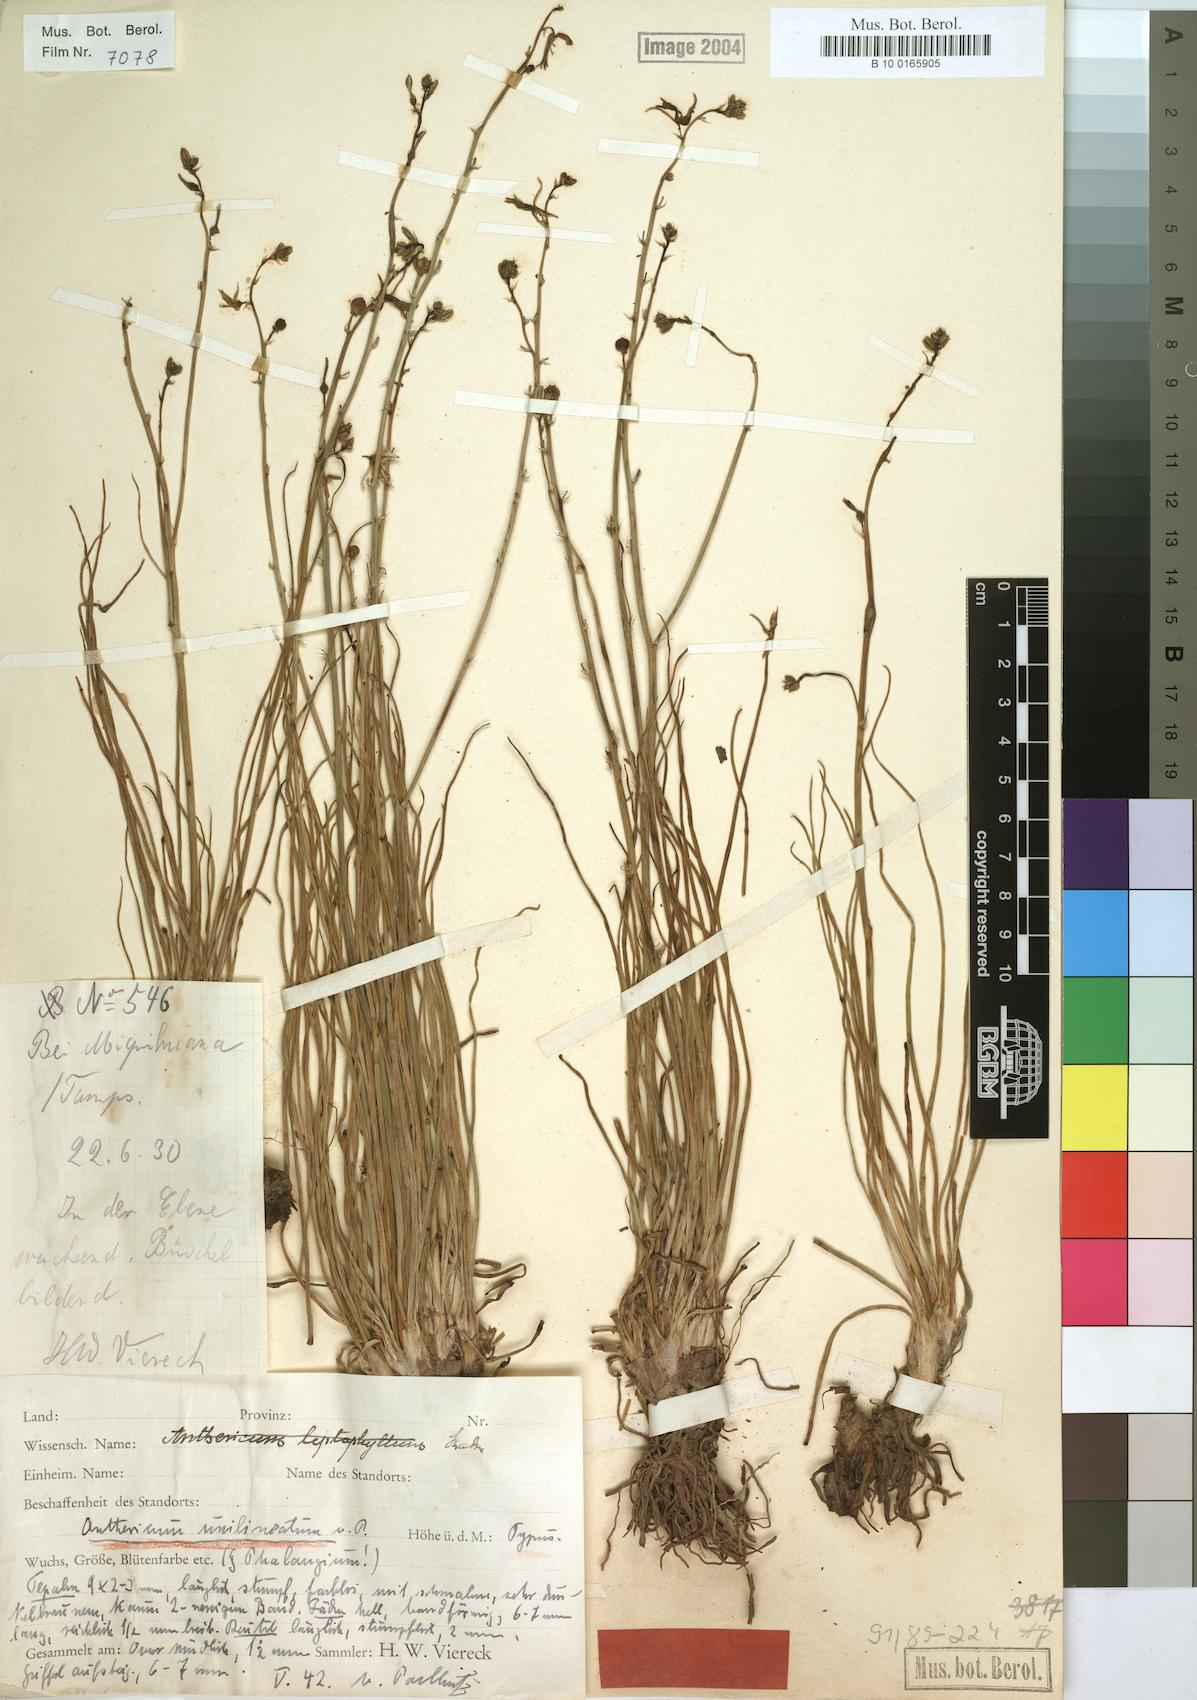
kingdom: Plantae
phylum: Tracheophyta
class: Liliopsida
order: Asparagales
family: Asphodelaceae
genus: Asphodelus
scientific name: Asphodelus fistulosus
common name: Onionweed
